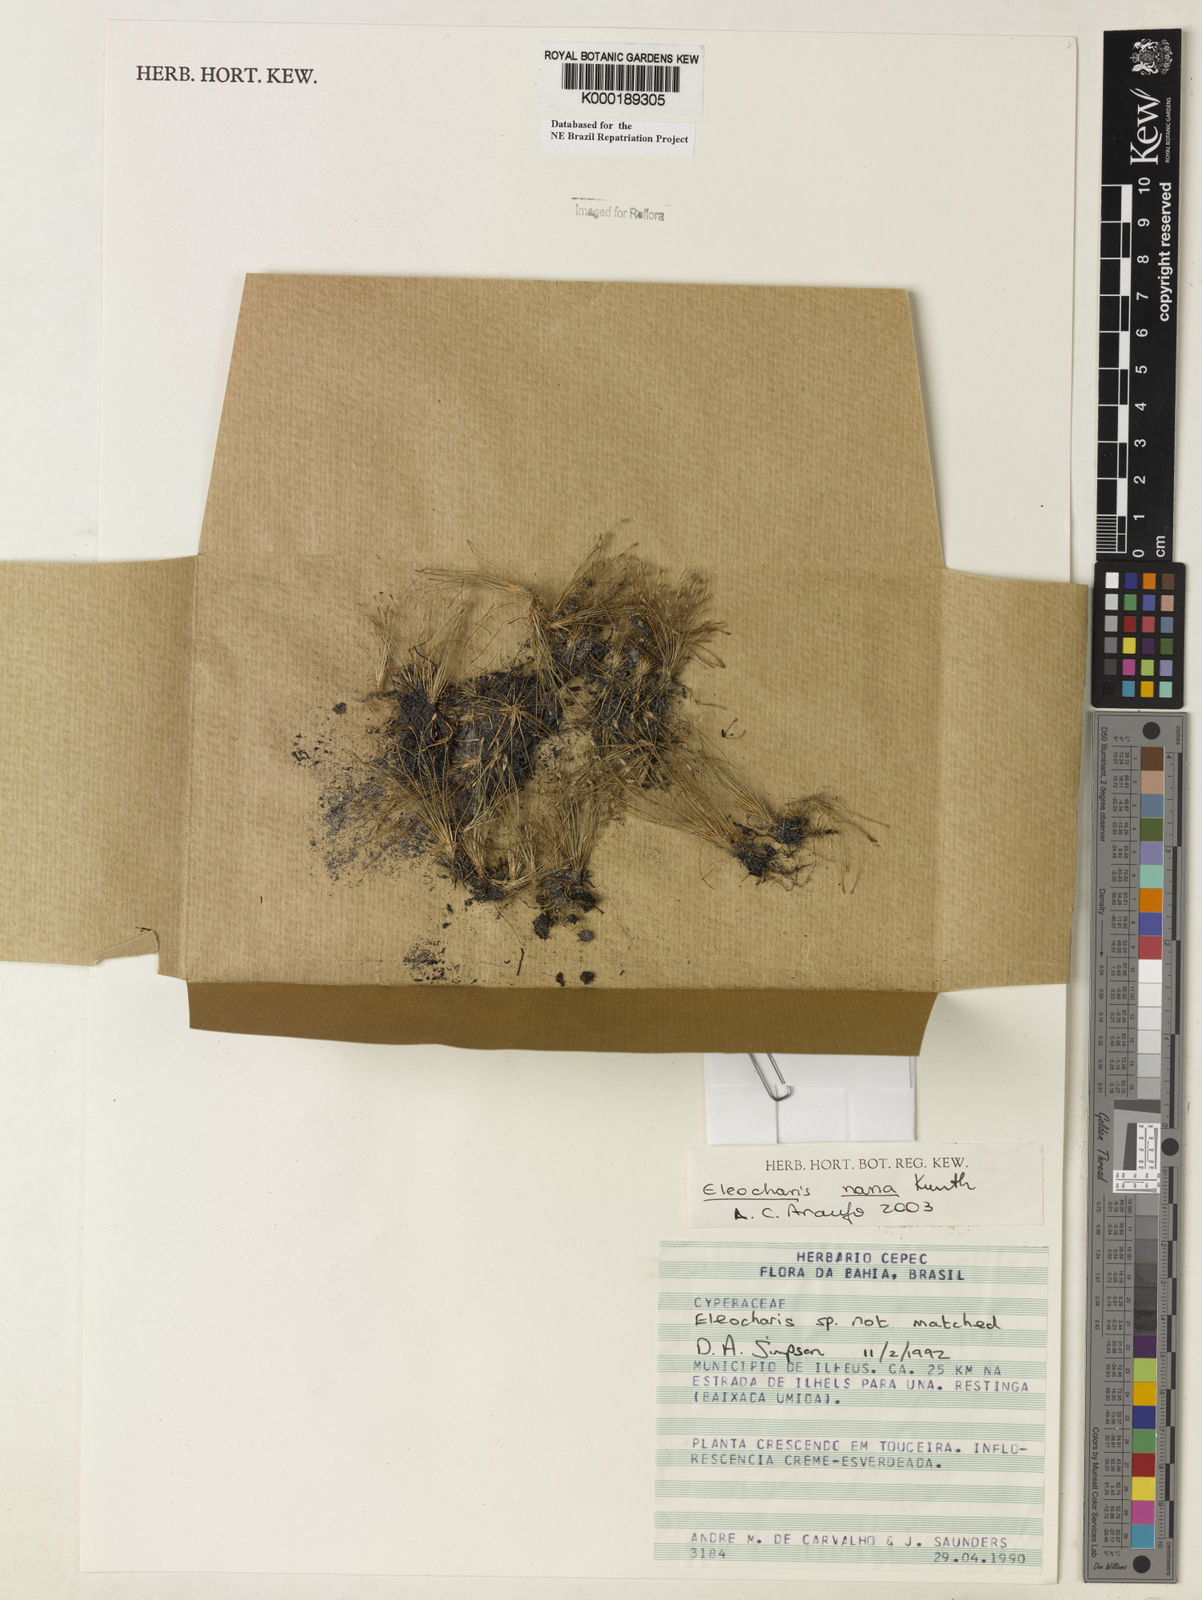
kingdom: Plantae
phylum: Tracheophyta
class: Liliopsida
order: Poales
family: Cyperaceae
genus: Eleocharis
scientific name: Eleocharis nana
